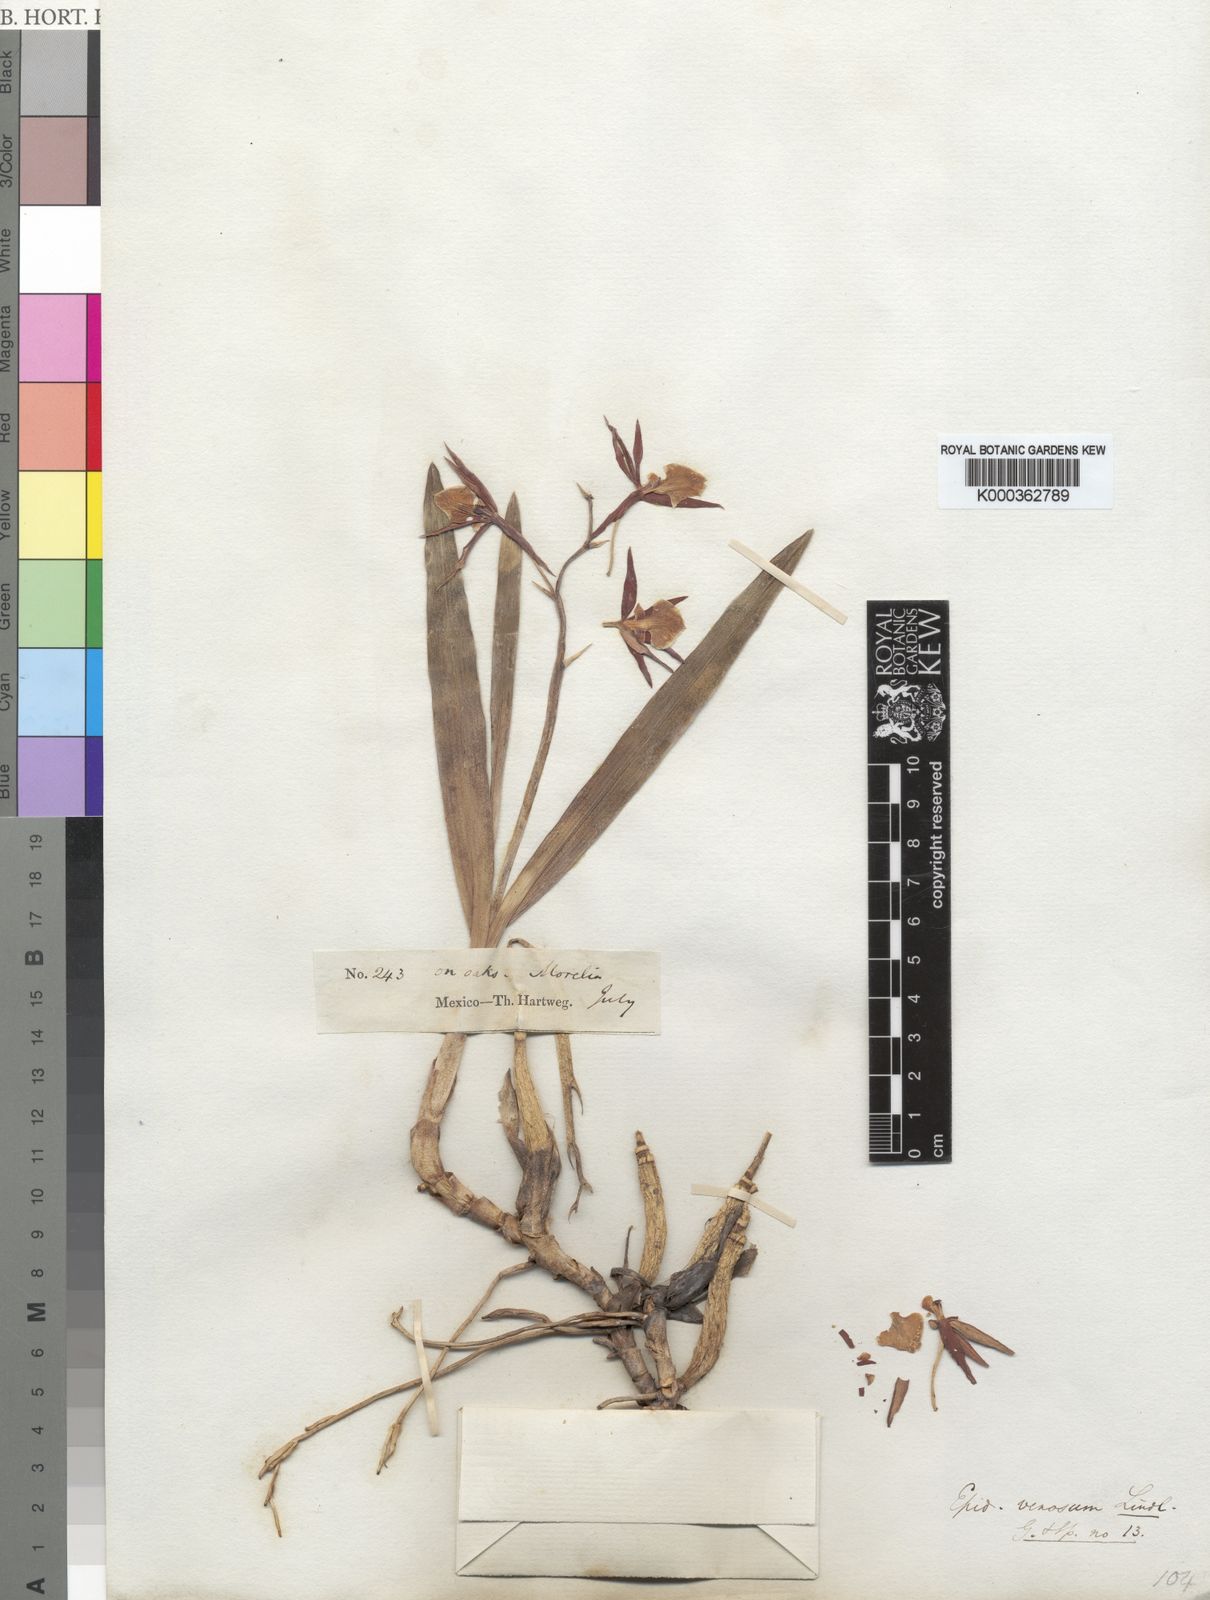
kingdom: Plantae
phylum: Tracheophyta
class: Liliopsida
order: Asparagales
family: Orchidaceae
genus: Prosthechea
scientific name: Prosthechea pastoris
